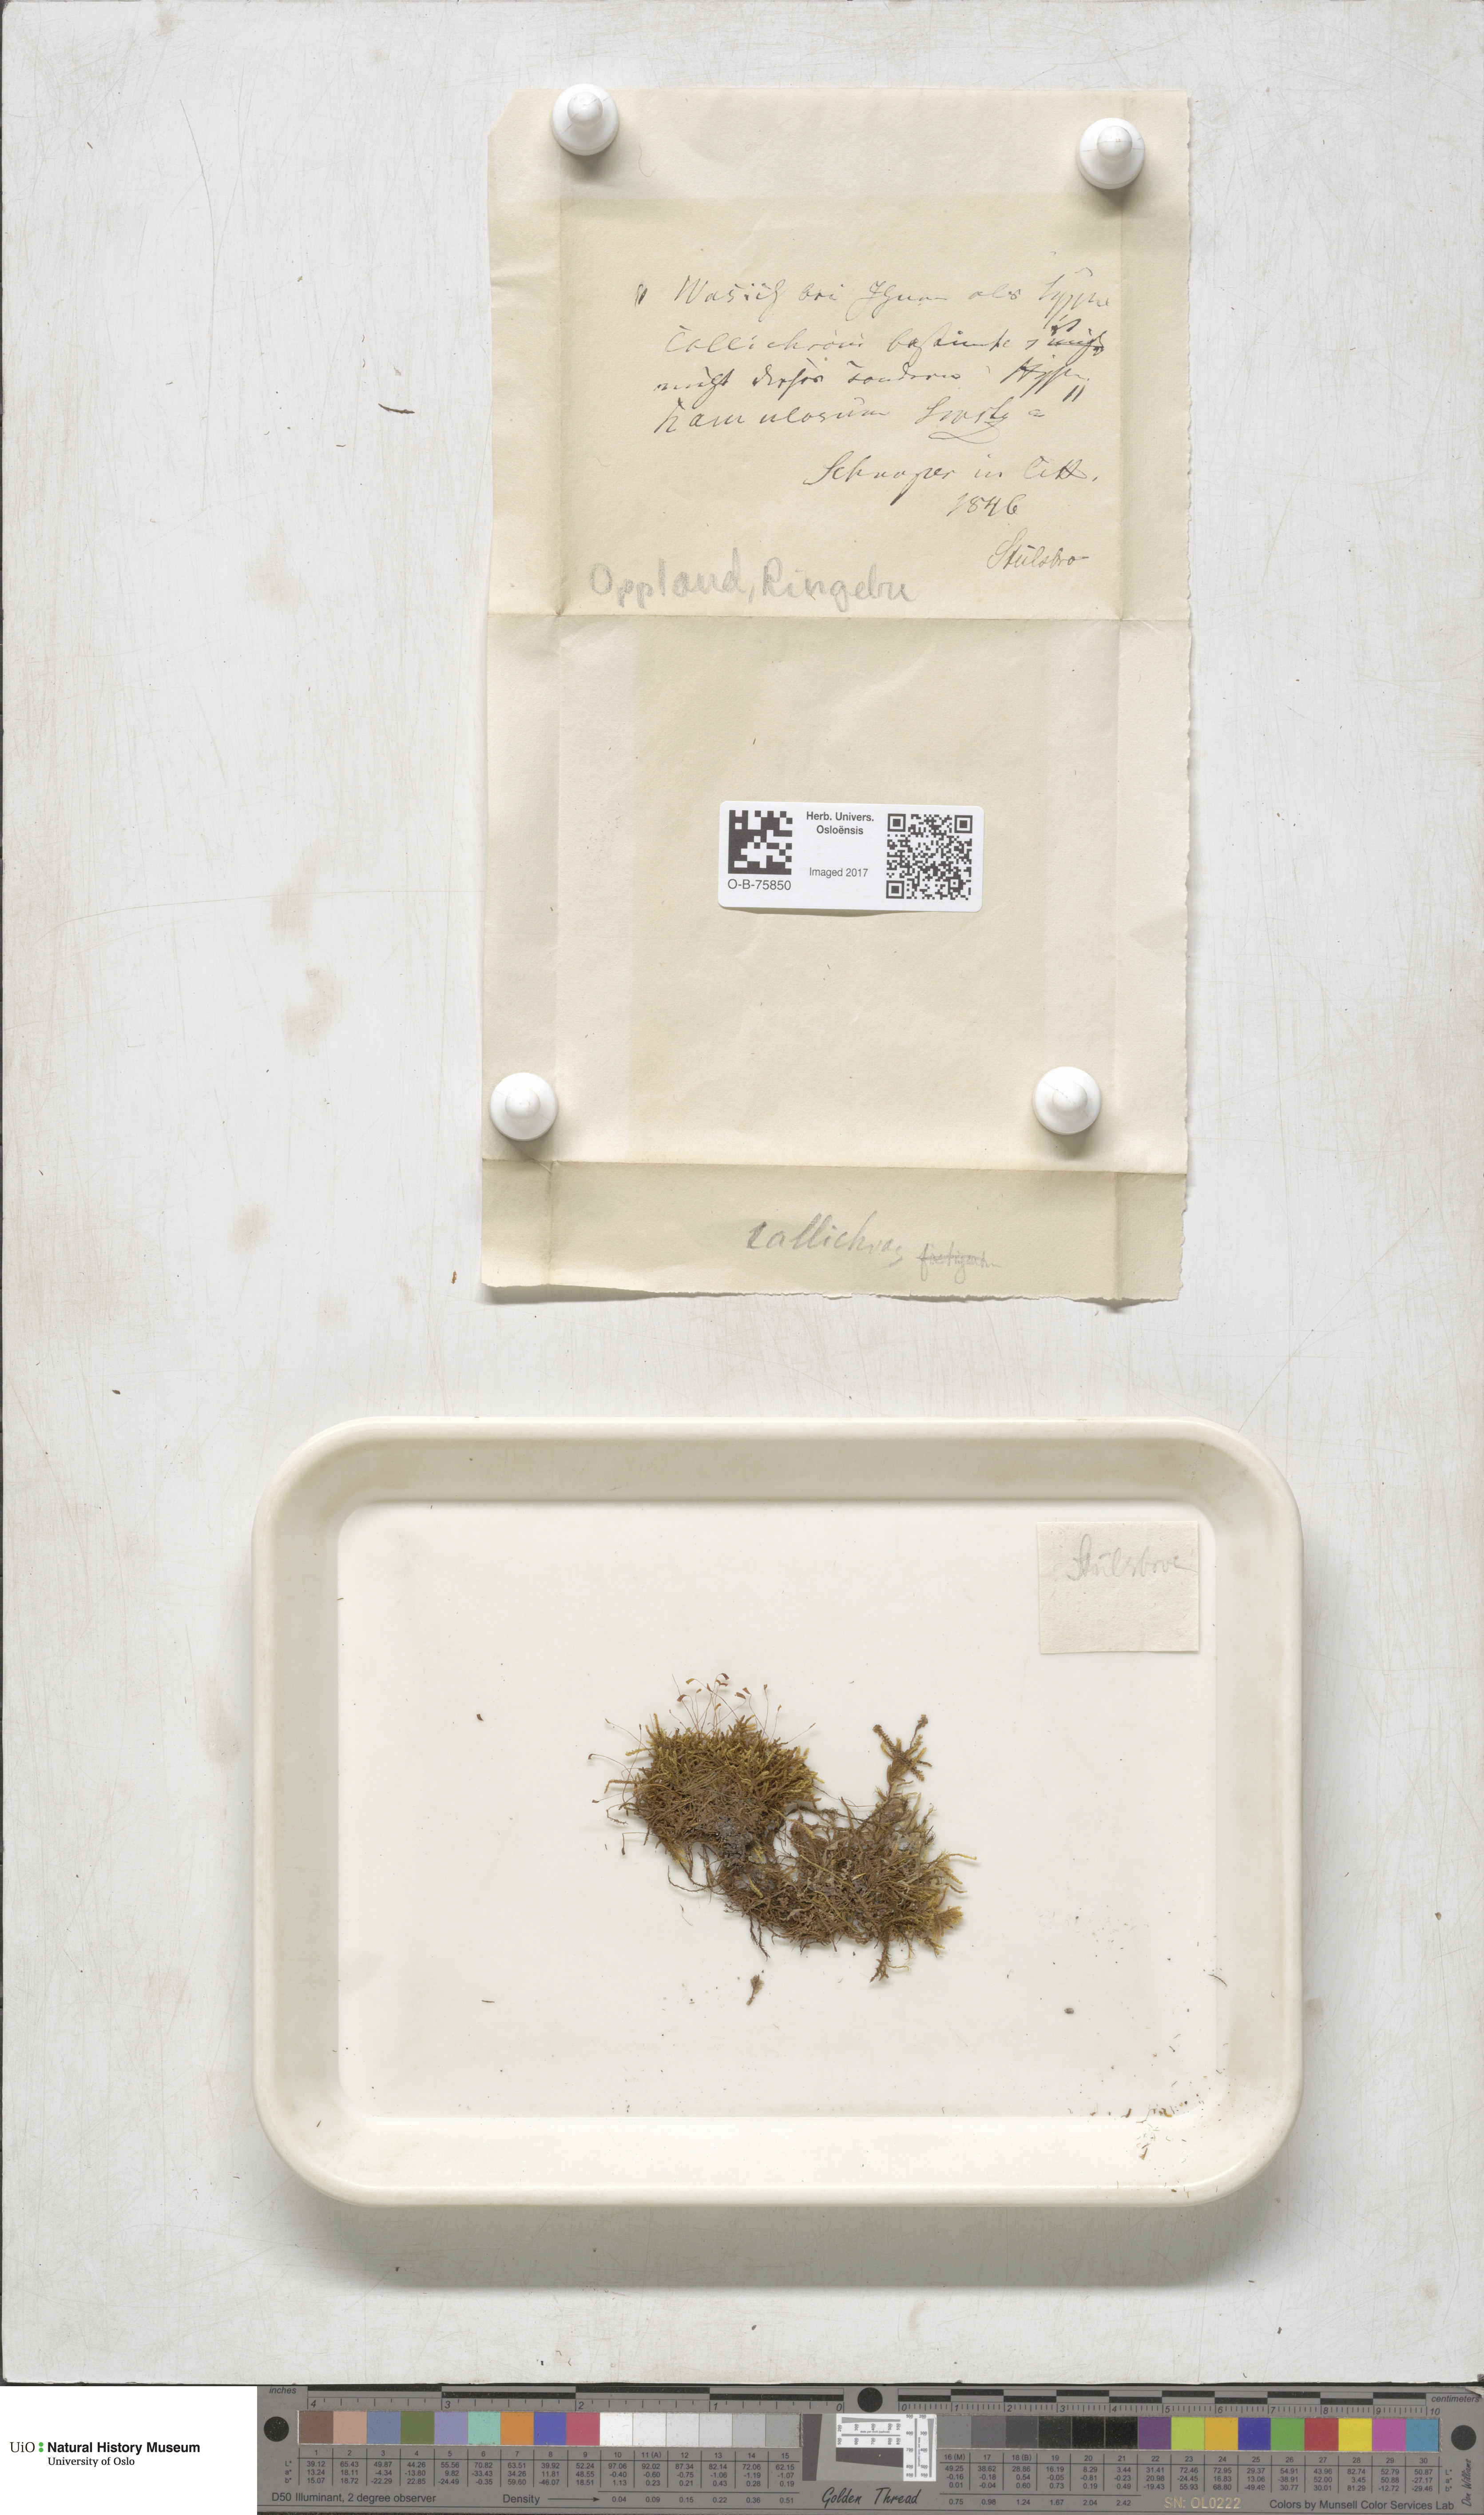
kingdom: Plantae
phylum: Bryophyta
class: Bryopsida
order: Hypnales
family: Stereodontaceae
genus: Stereodon
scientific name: Stereodon callichrous
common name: Downy plait-moss
